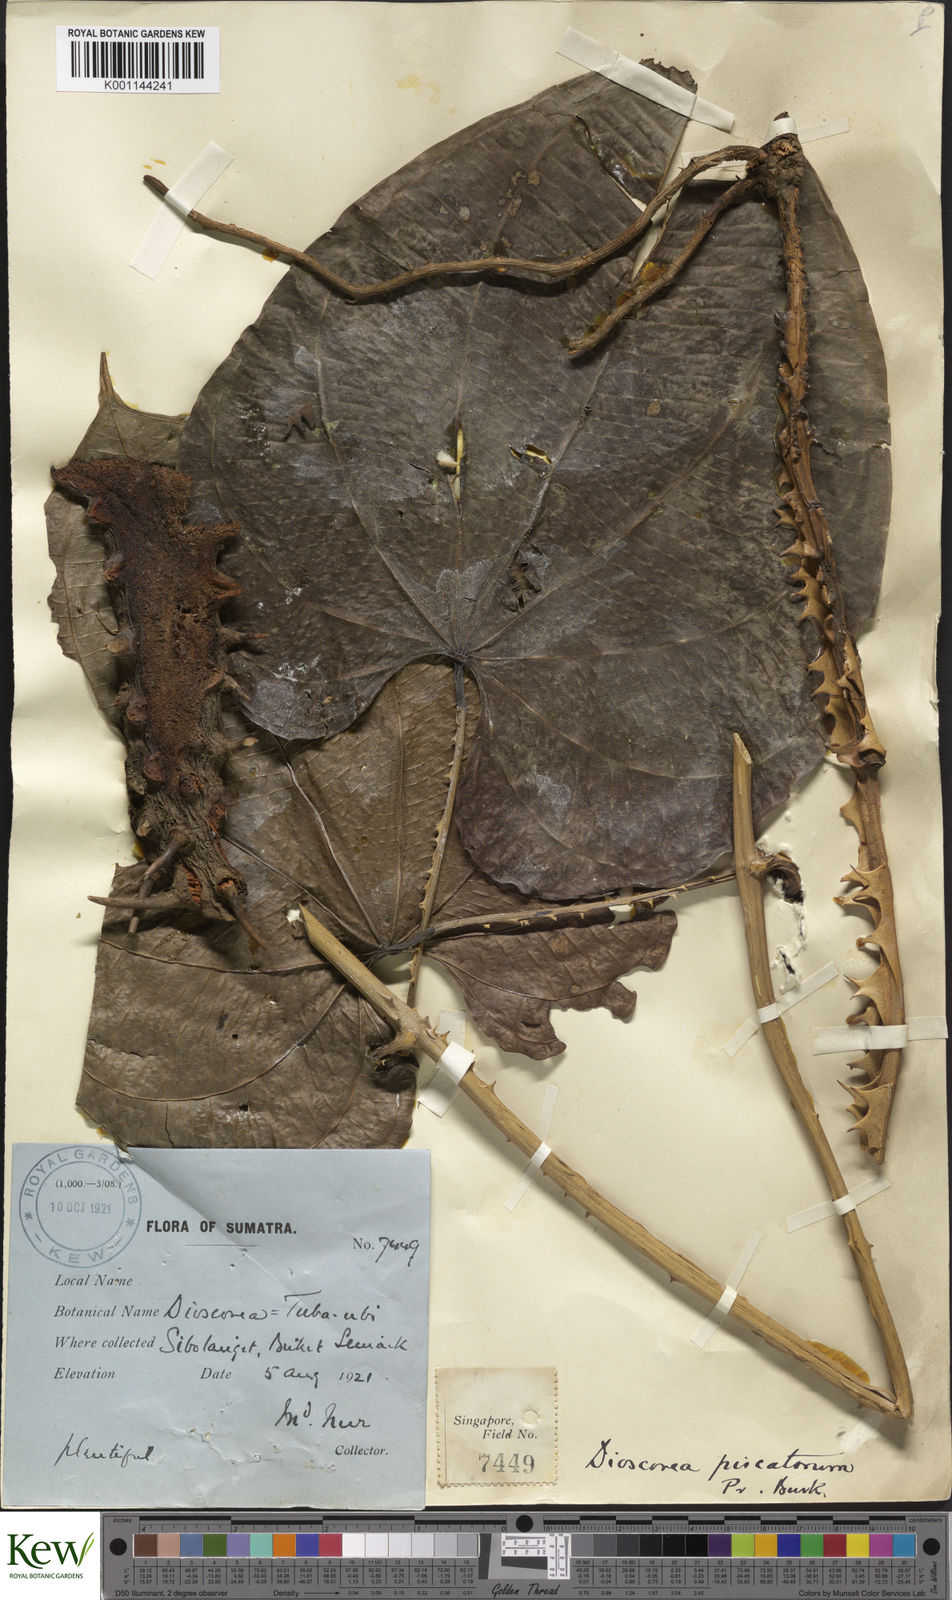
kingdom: Plantae
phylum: Tracheophyta
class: Liliopsida
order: Dioscoreales
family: Dioscoreaceae
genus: Dioscorea
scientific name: Dioscorea piscatorum
